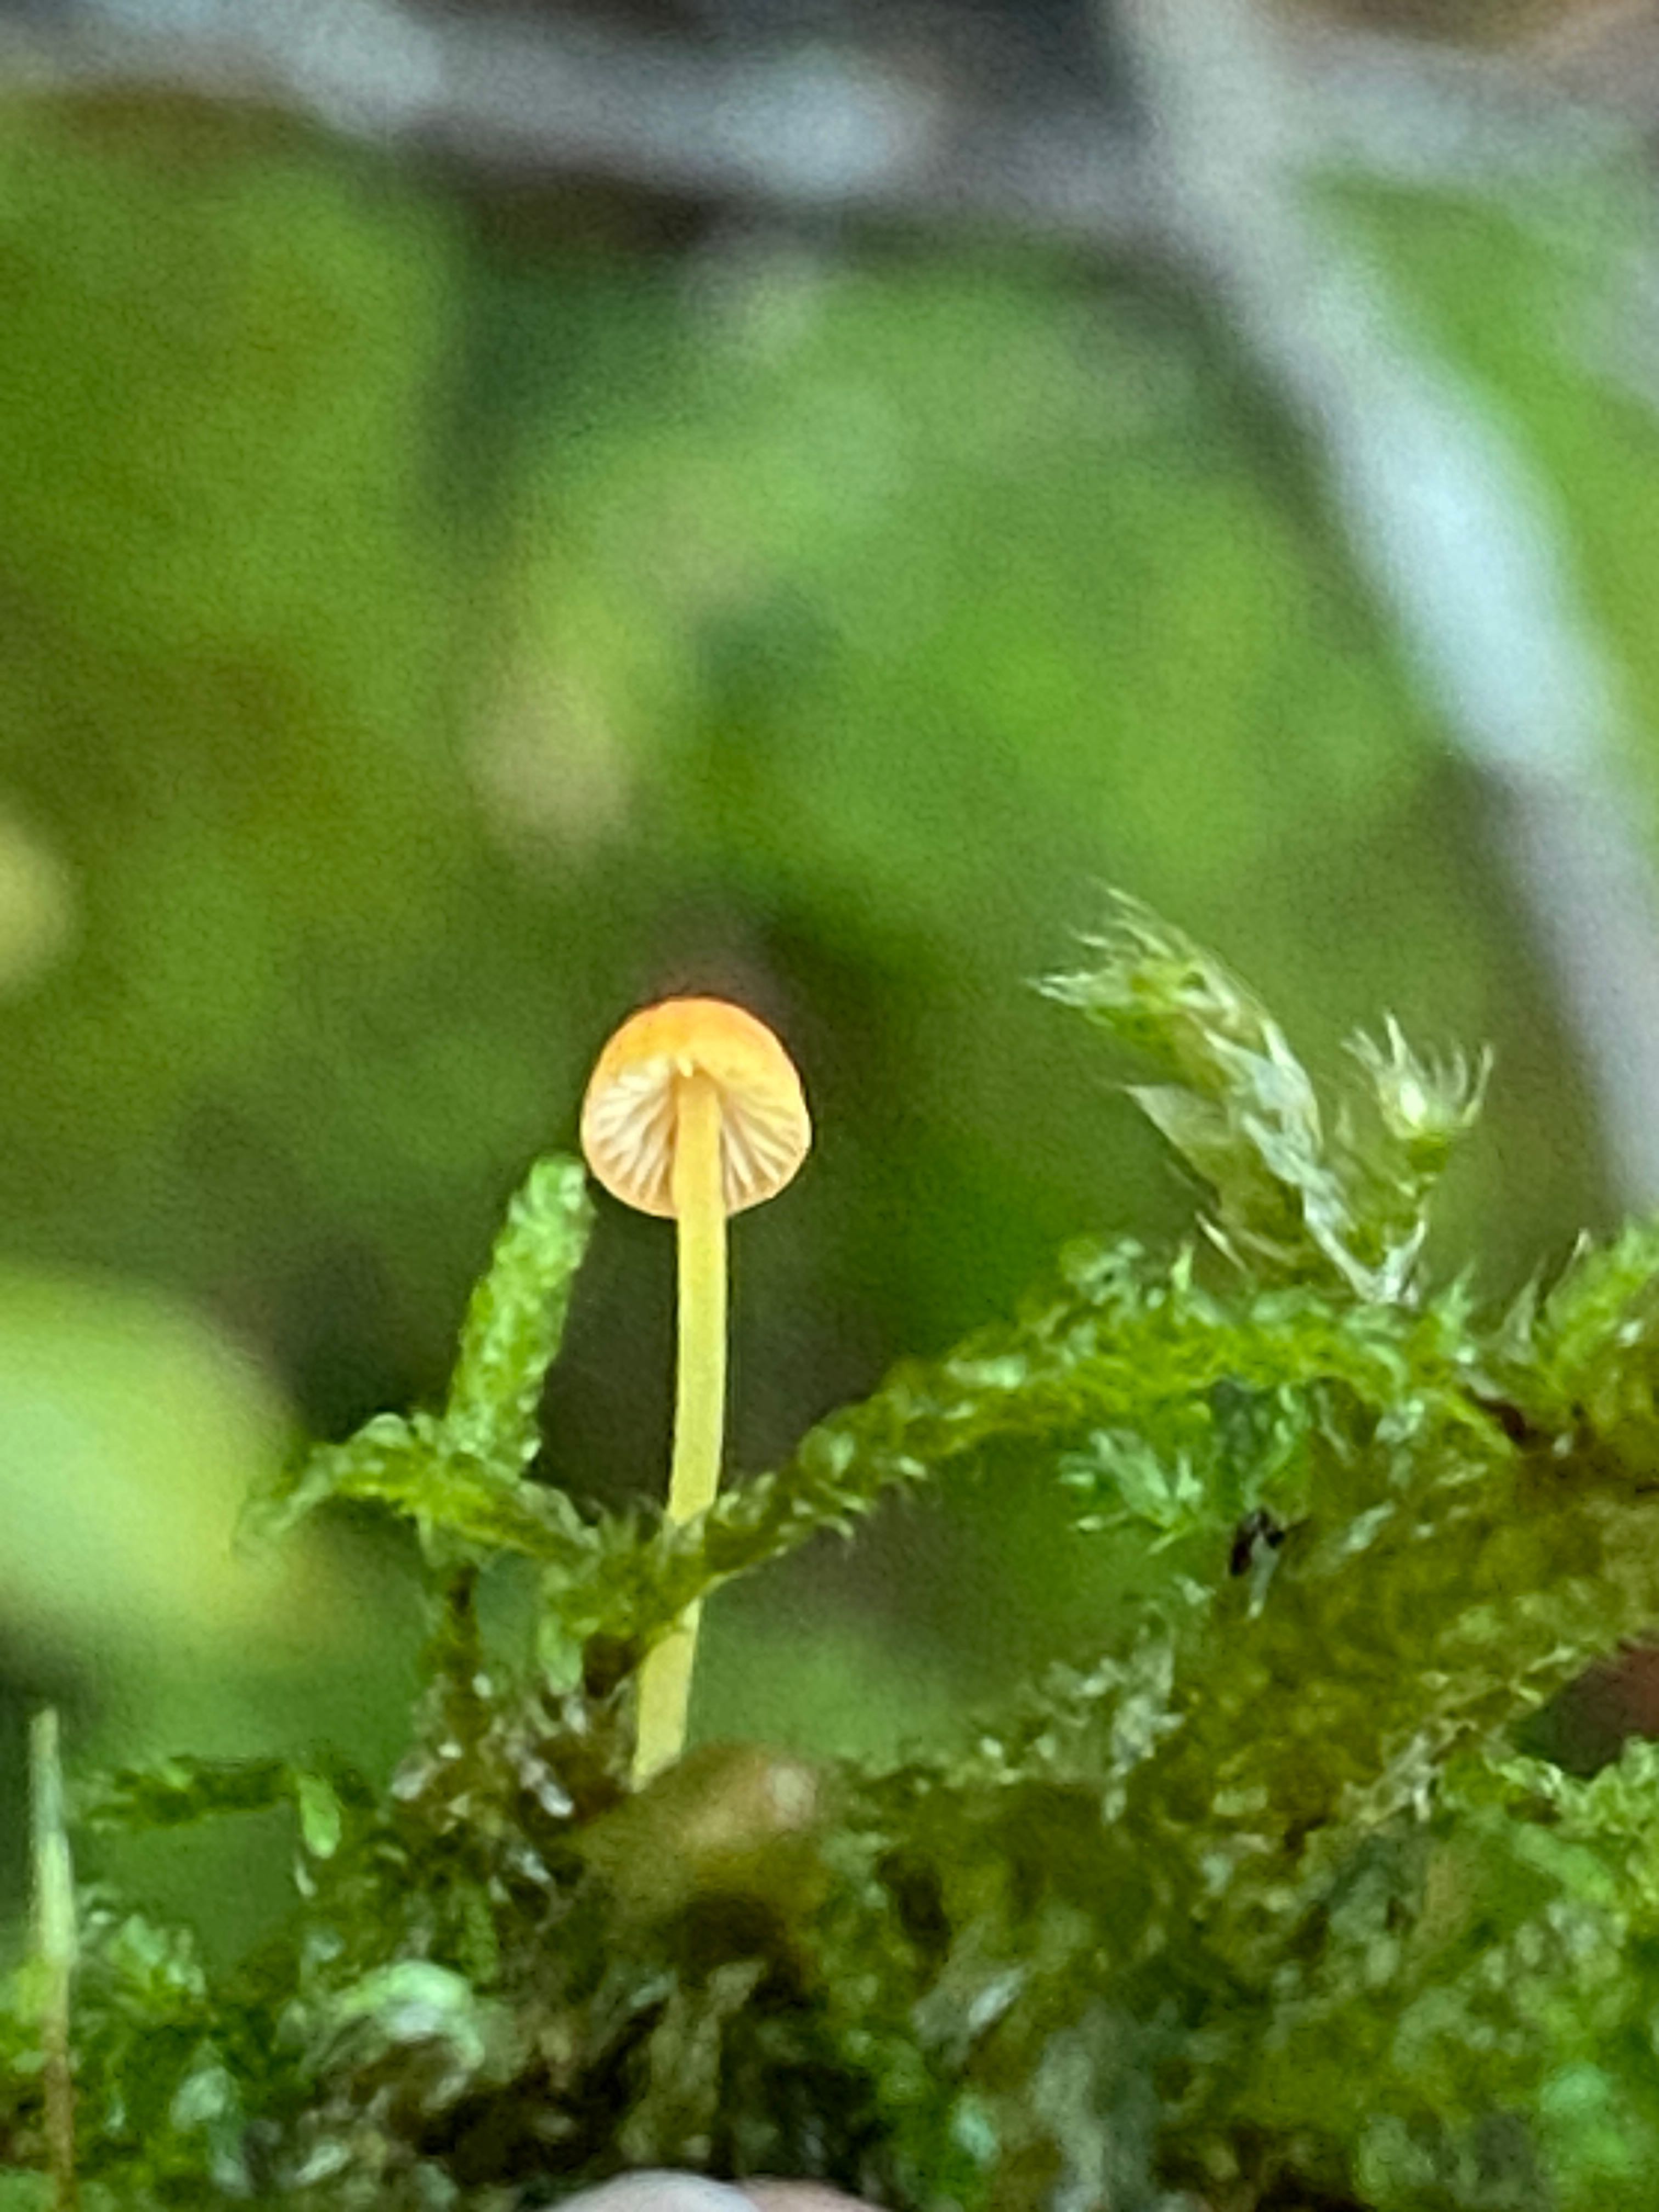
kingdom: Fungi
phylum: Basidiomycota
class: Agaricomycetes
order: Agaricales
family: Mycenaceae
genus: Mycena
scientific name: Mycena acicula
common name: orange huesvamp
